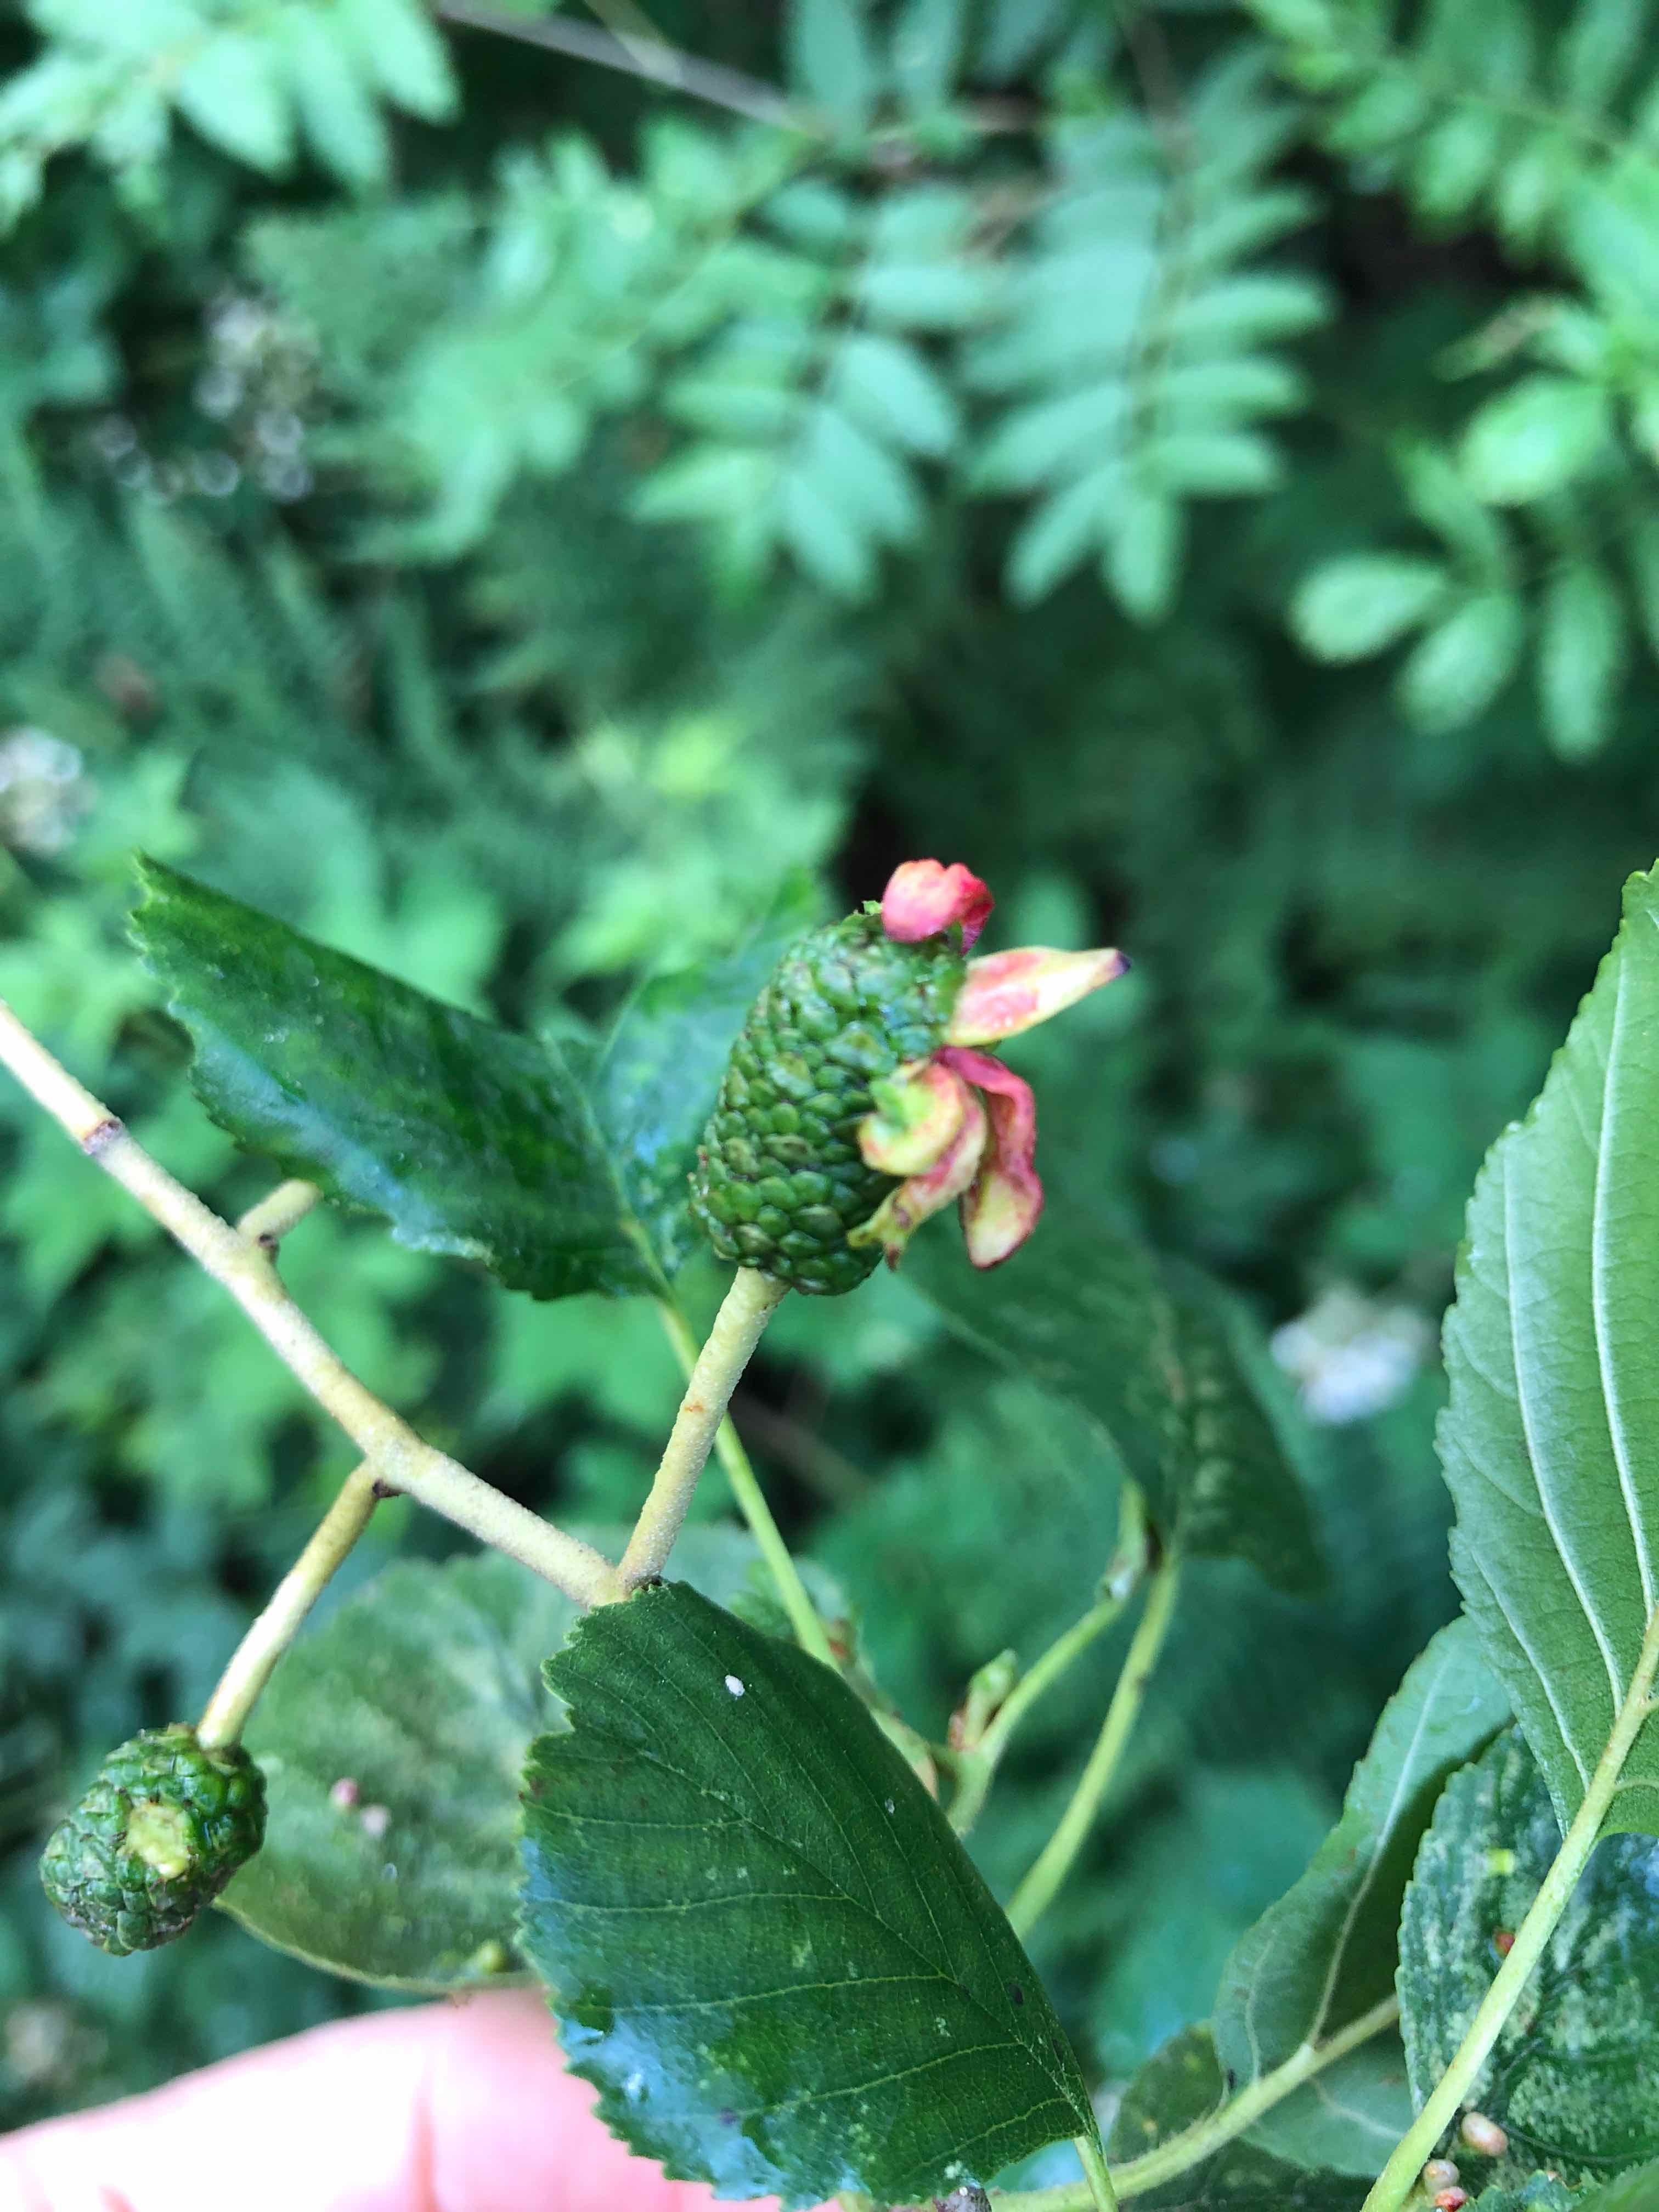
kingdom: Fungi
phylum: Ascomycota
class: Taphrinomycetes
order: Taphrinales
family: Taphrinaceae
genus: Taphrina
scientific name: Taphrina alni
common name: Alder tongue
